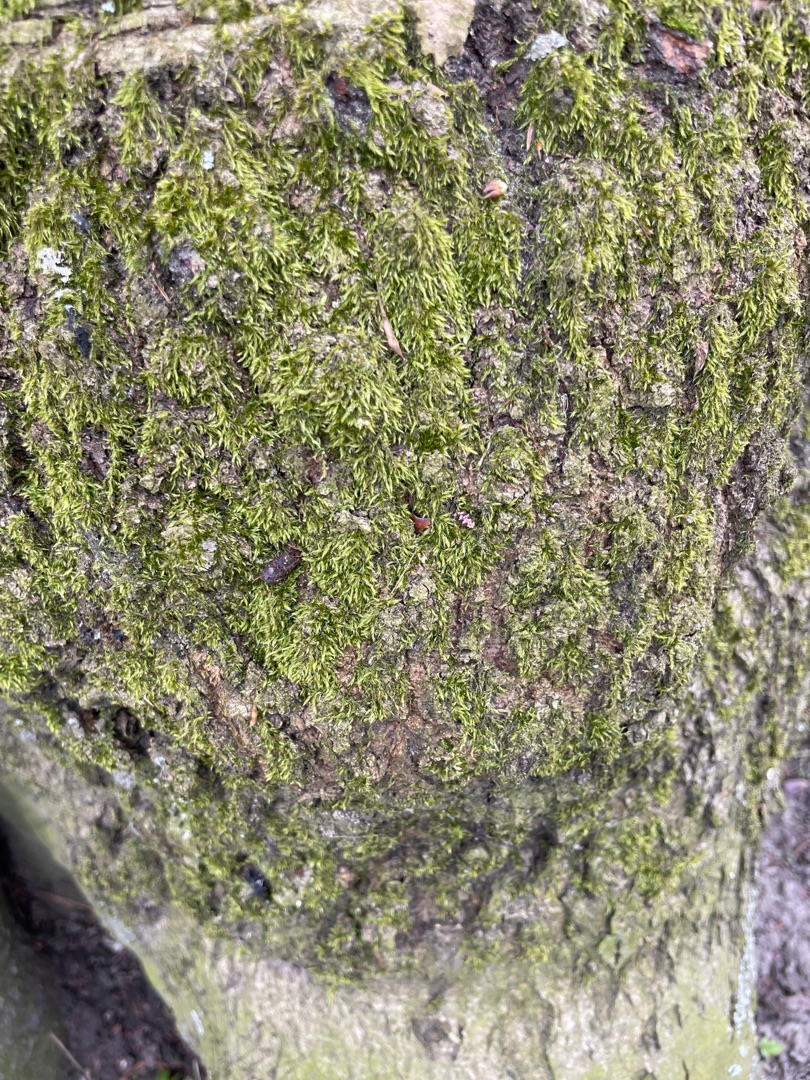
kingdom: Plantae
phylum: Bryophyta
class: Bryopsida
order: Hypnales
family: Hypnaceae
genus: Hypnum
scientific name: Hypnum
